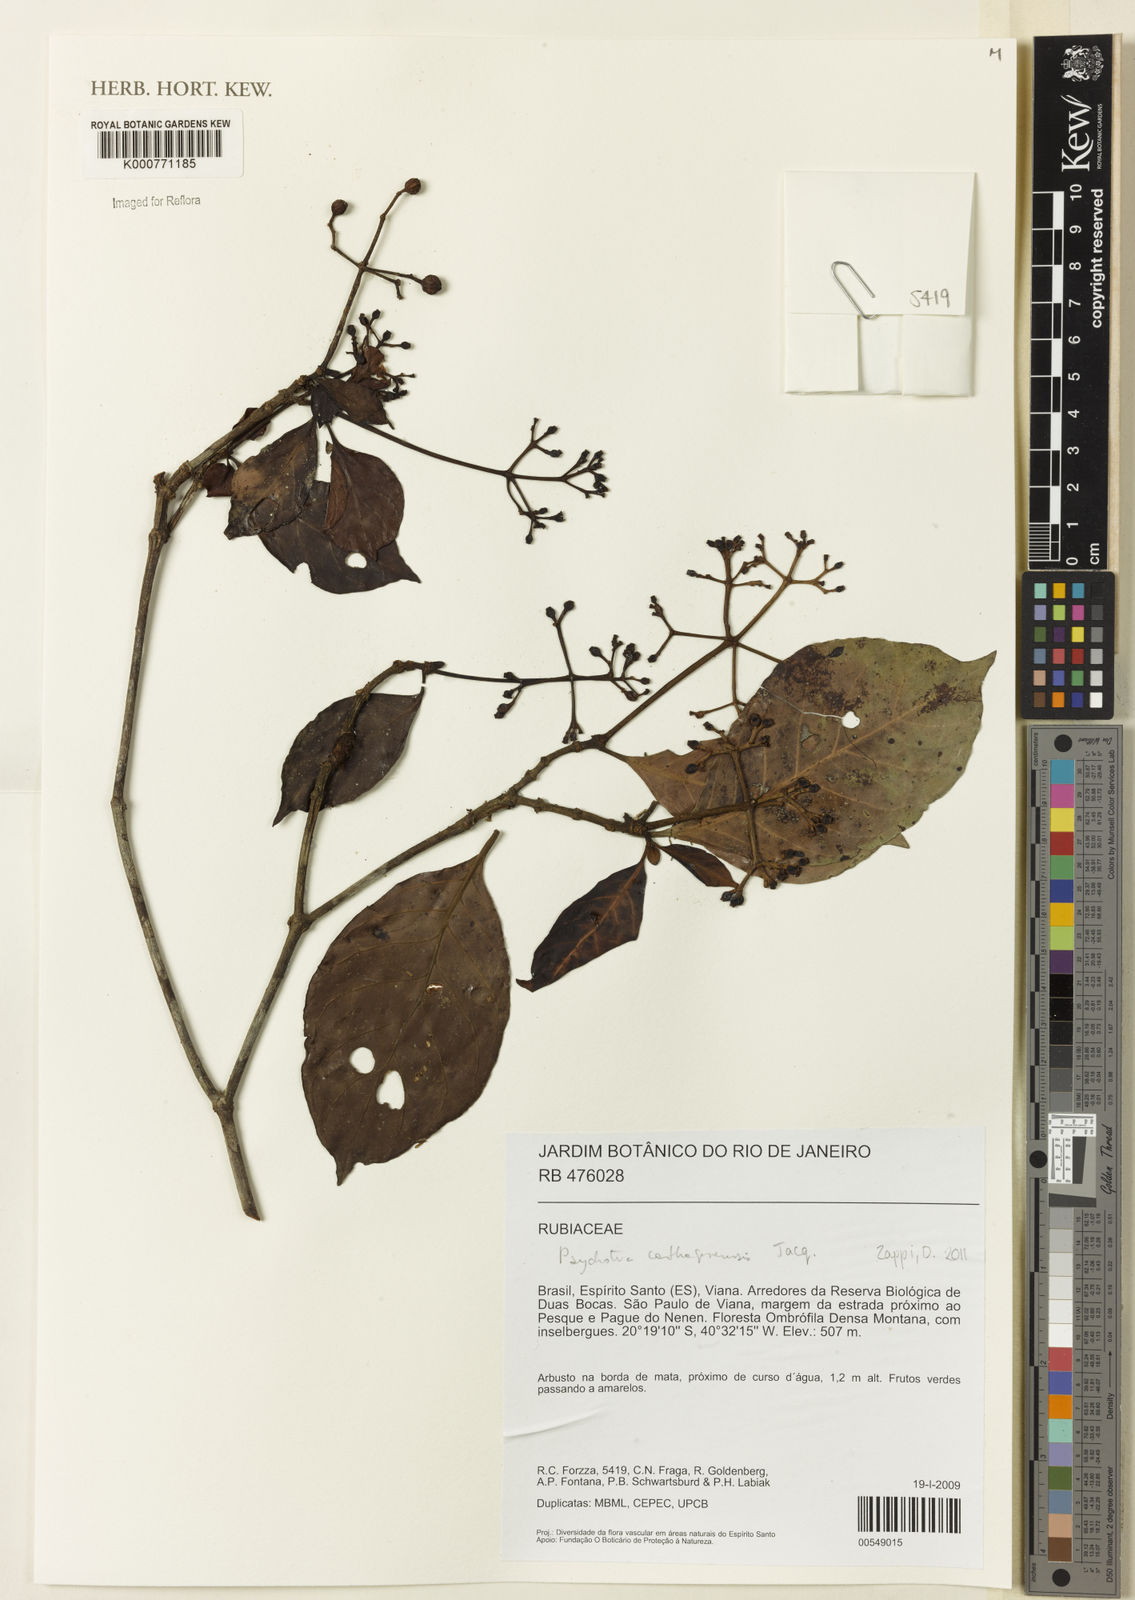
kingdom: Plantae
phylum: Tracheophyta
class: Magnoliopsida
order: Gentianales
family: Rubiaceae
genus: Psychotria
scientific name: Psychotria carthagenensis
